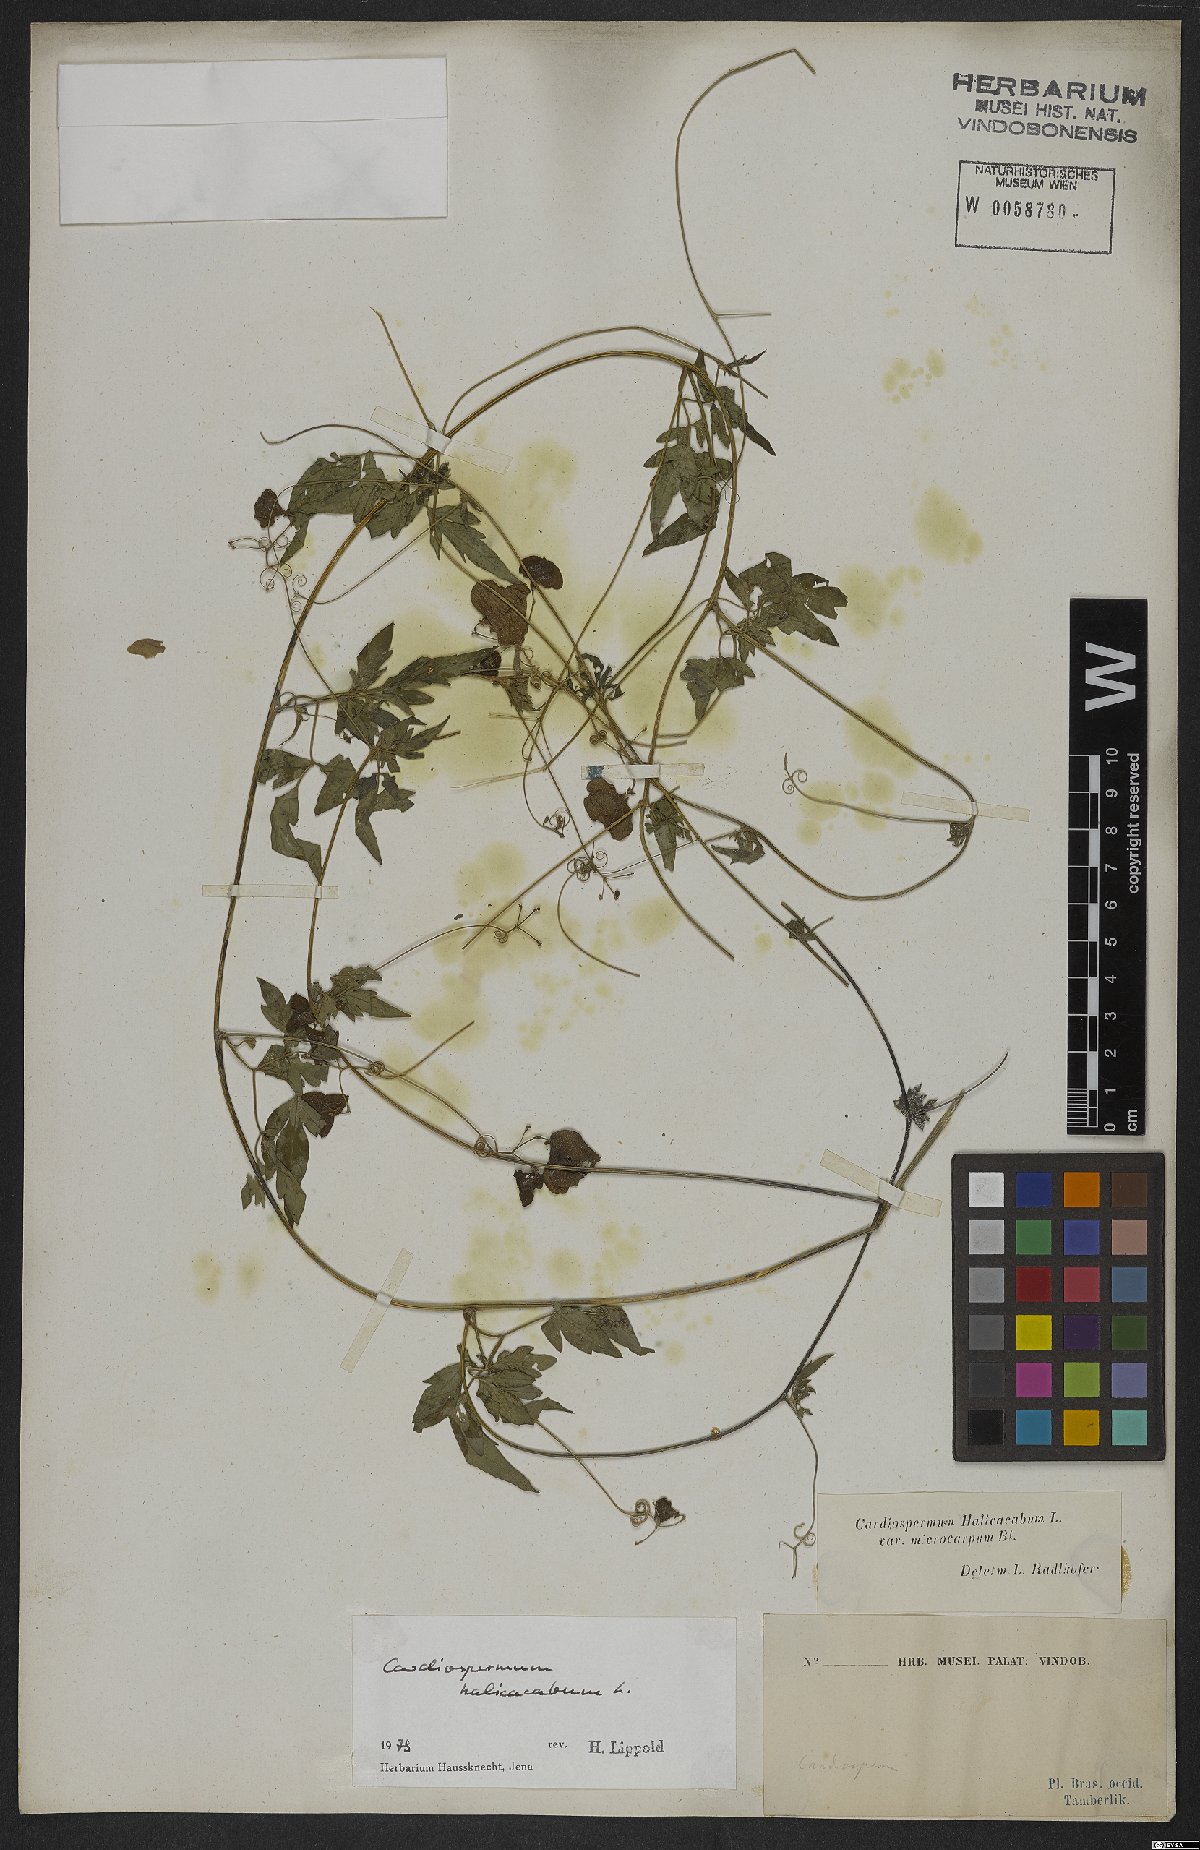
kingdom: Plantae
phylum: Tracheophyta
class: Magnoliopsida
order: Sapindales
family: Sapindaceae
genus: Cardiospermum
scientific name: Cardiospermum halicacabum
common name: Balloon vine
